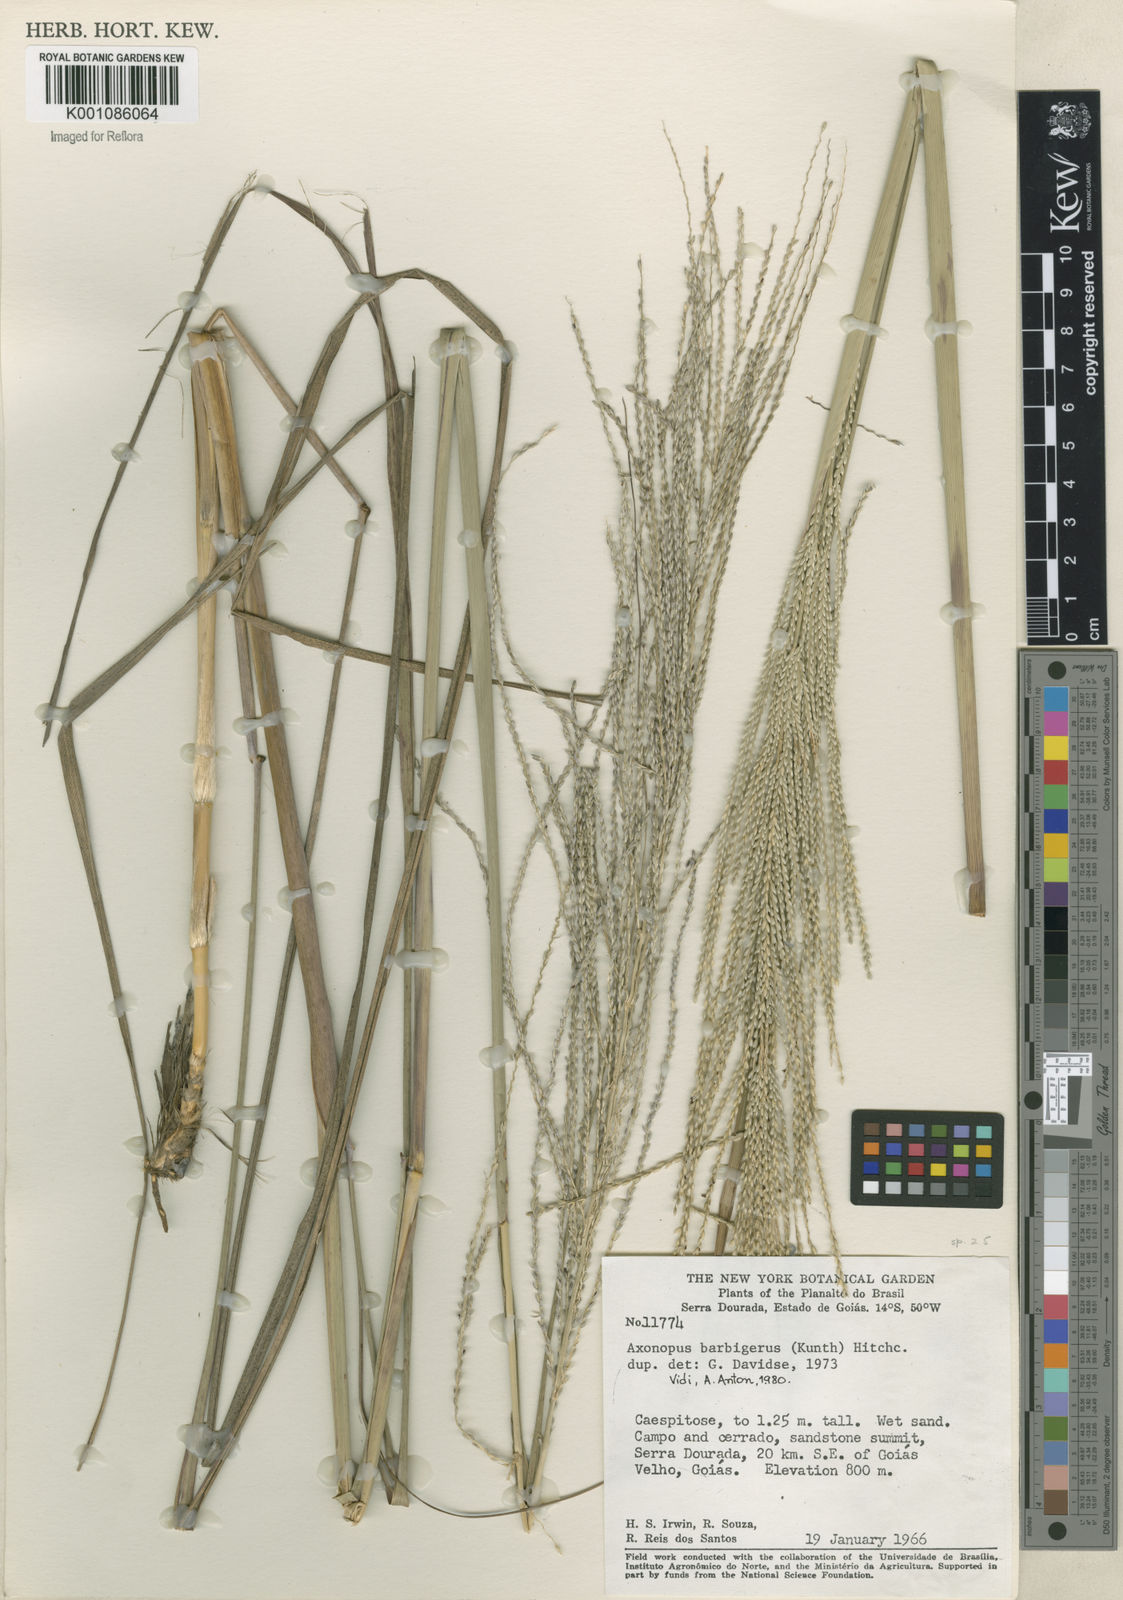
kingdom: Plantae
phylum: Tracheophyta
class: Liliopsida
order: Poales
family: Poaceae
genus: Axonopus
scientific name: Axonopus siccus
